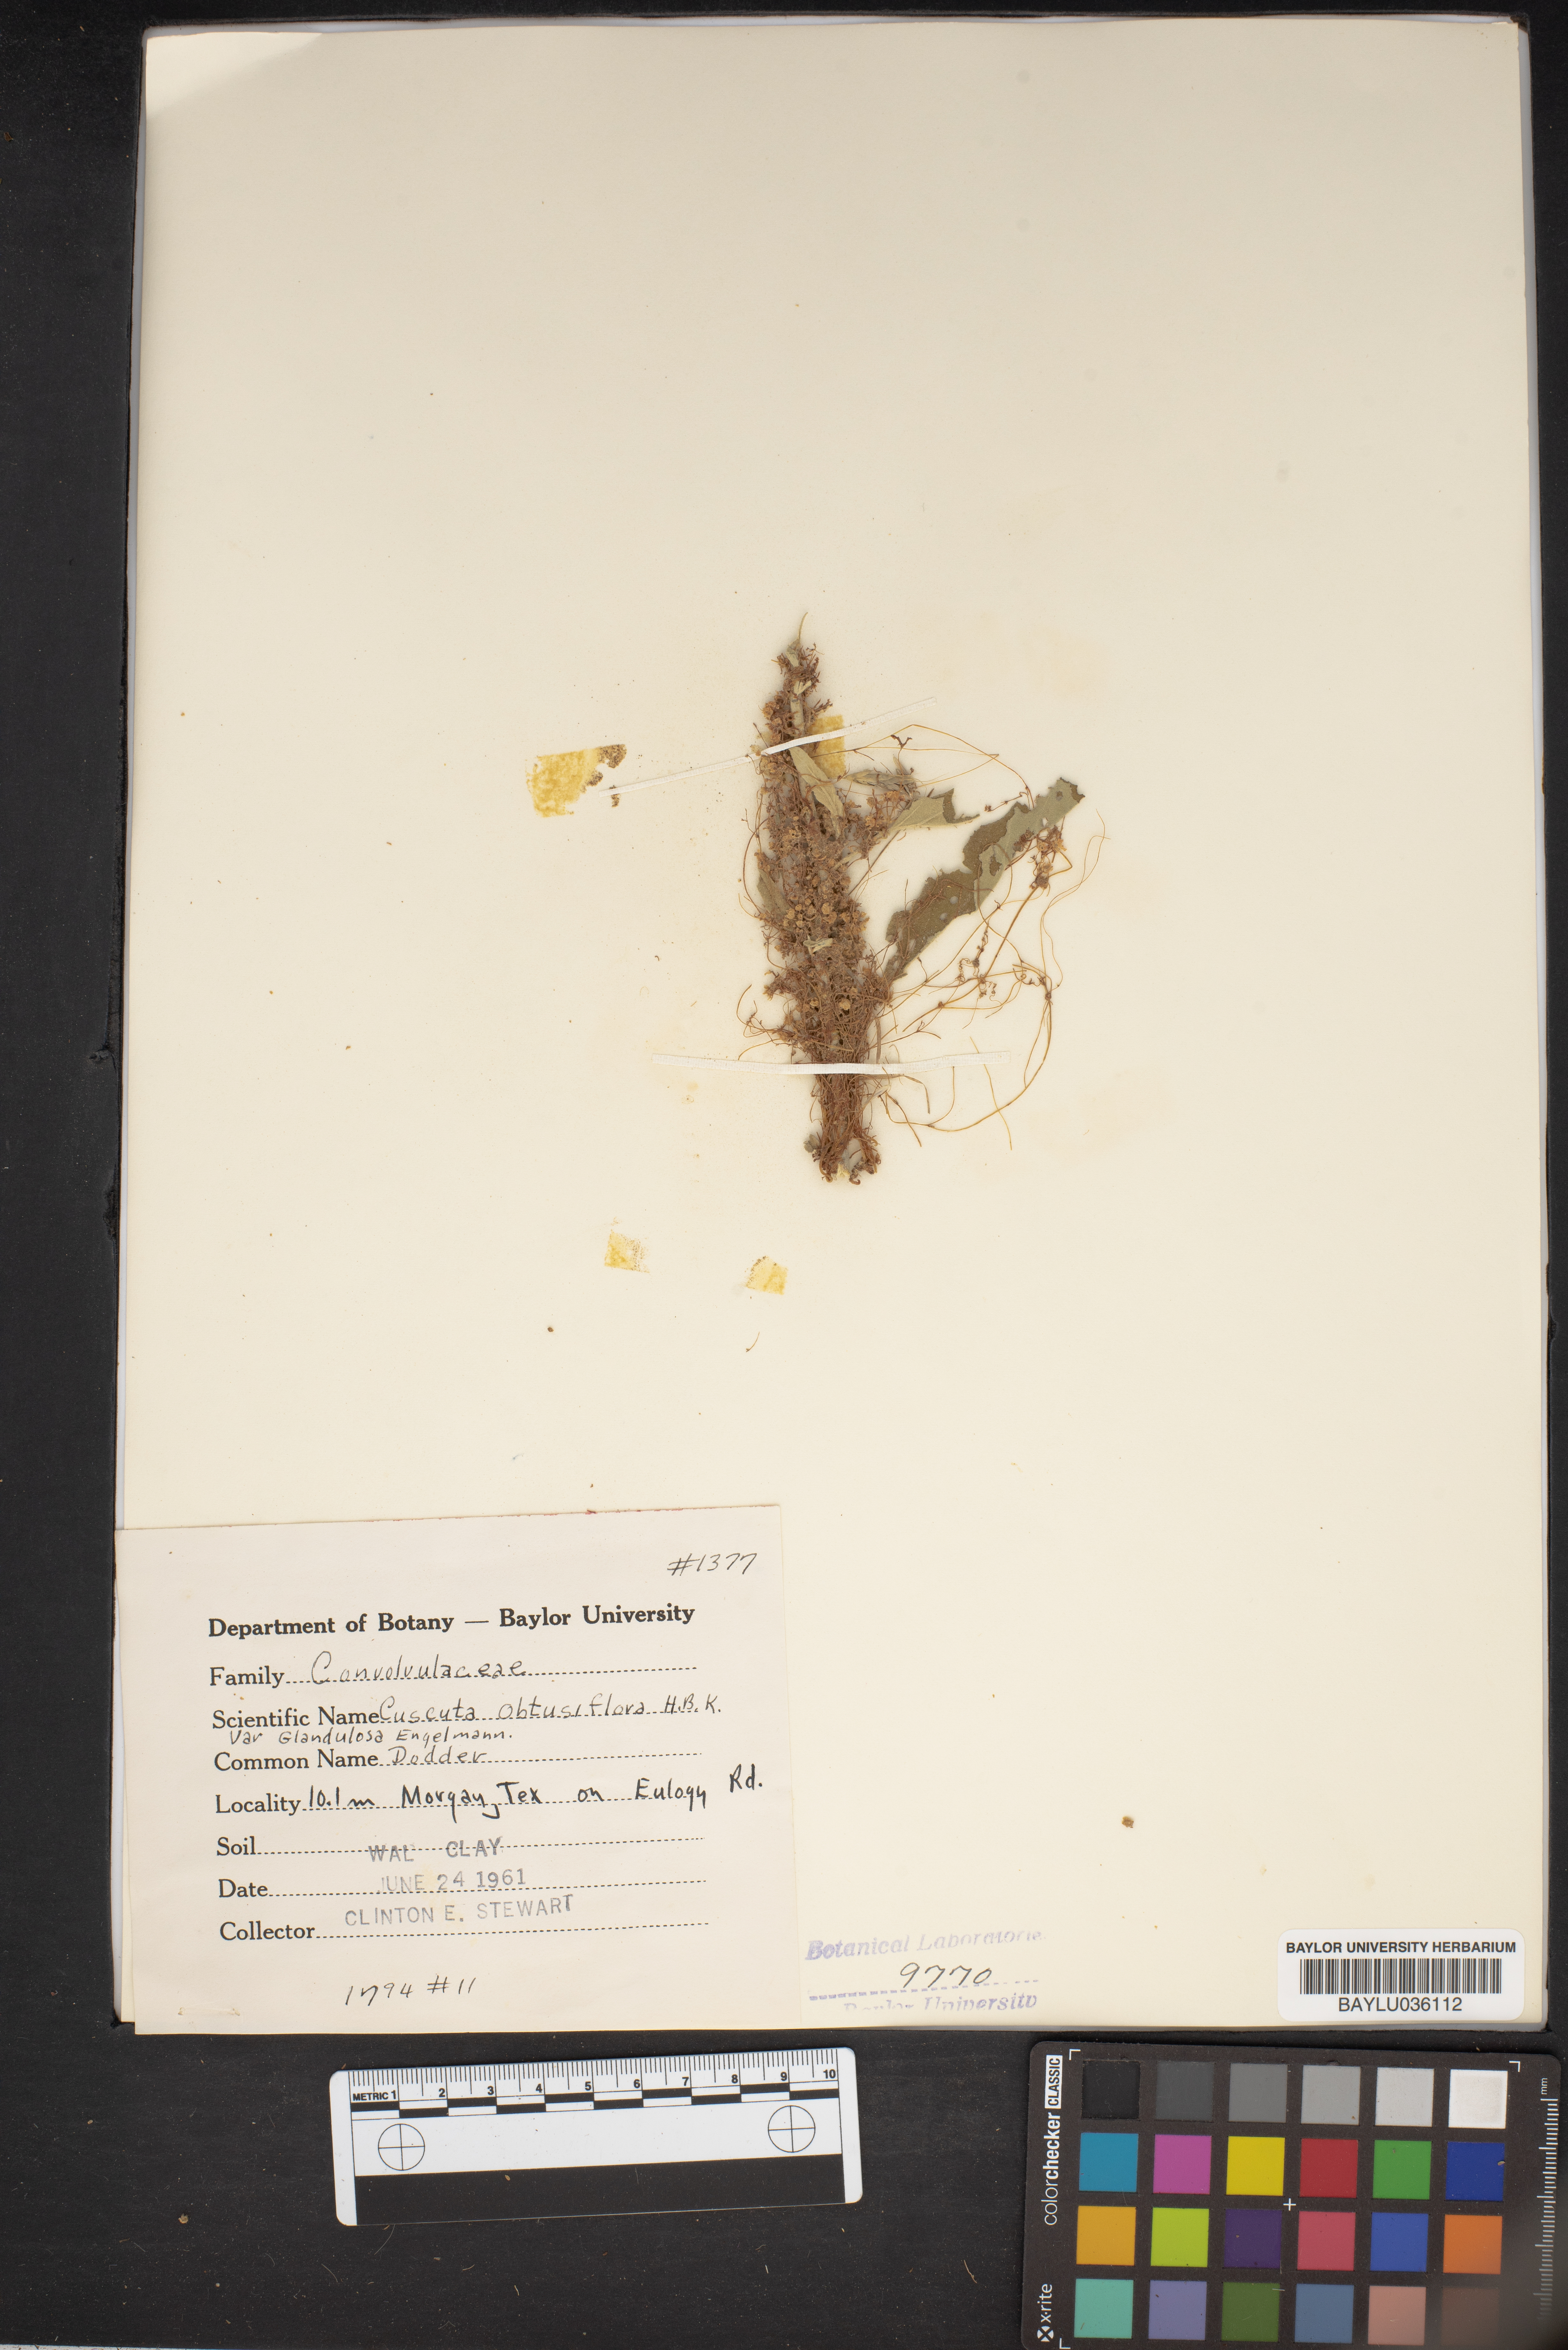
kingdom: Plantae
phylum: Tracheophyta
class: Magnoliopsida
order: Solanales
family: Convolvulaceae
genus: Cuscuta
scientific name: Cuscuta obtusiflora
